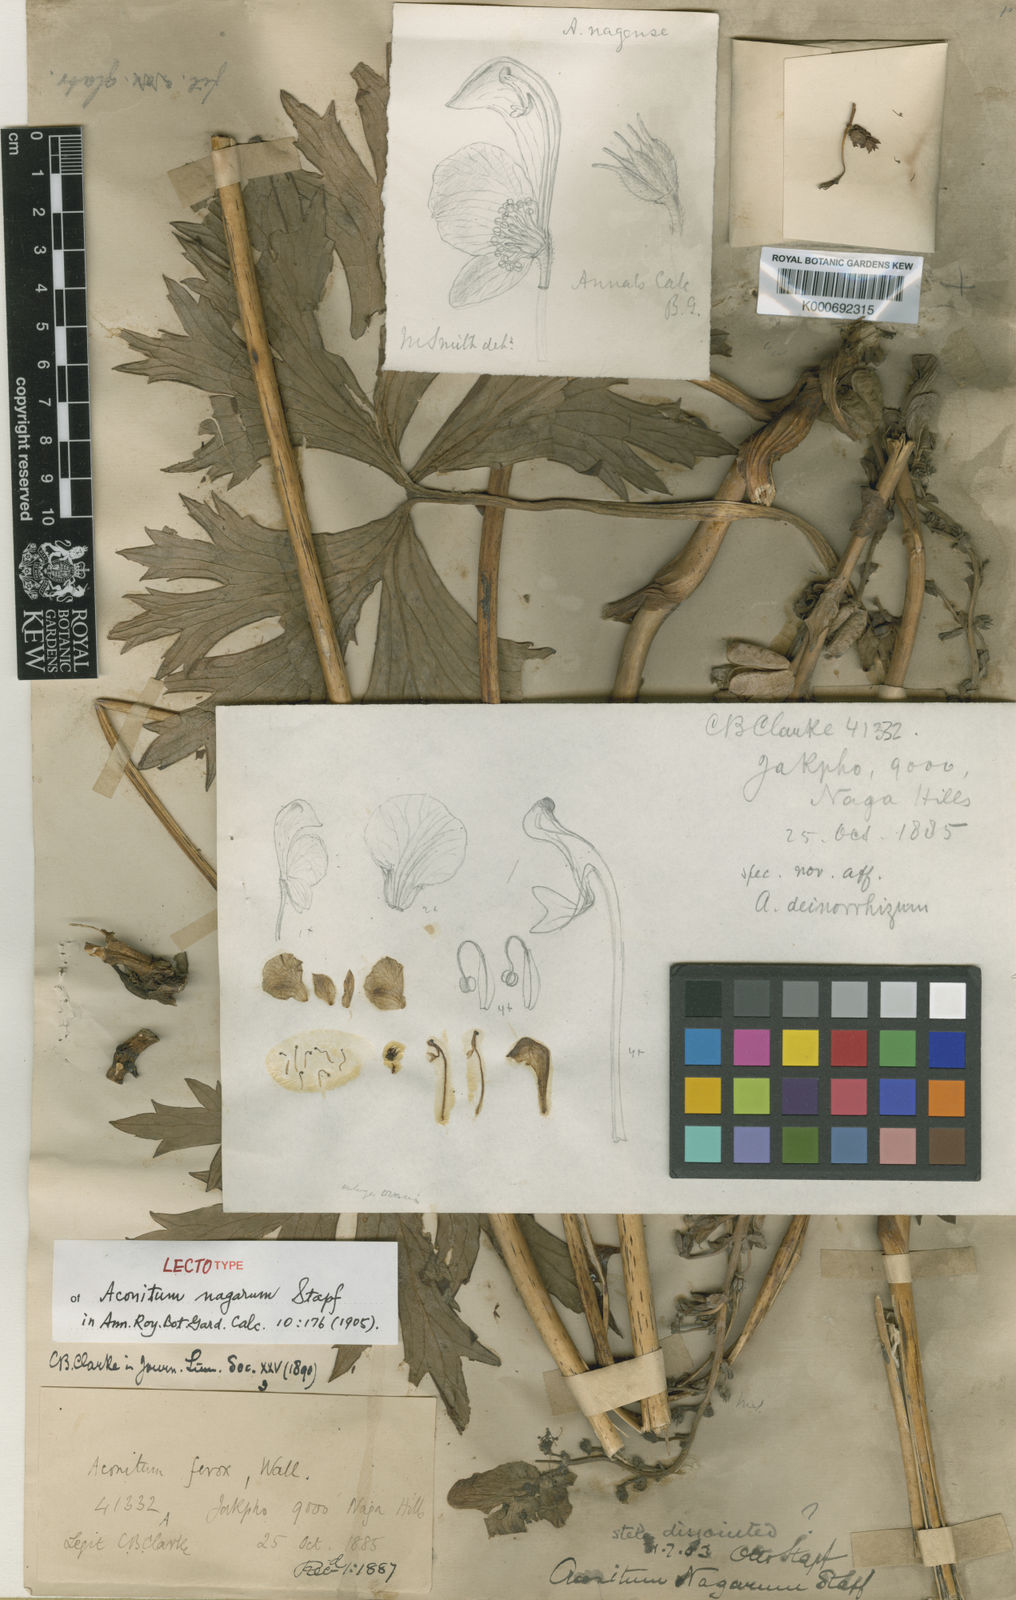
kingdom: Plantae
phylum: Tracheophyta
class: Magnoliopsida
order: Ranunculales
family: Ranunculaceae
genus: Aconitum
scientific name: Aconitum nagarum
